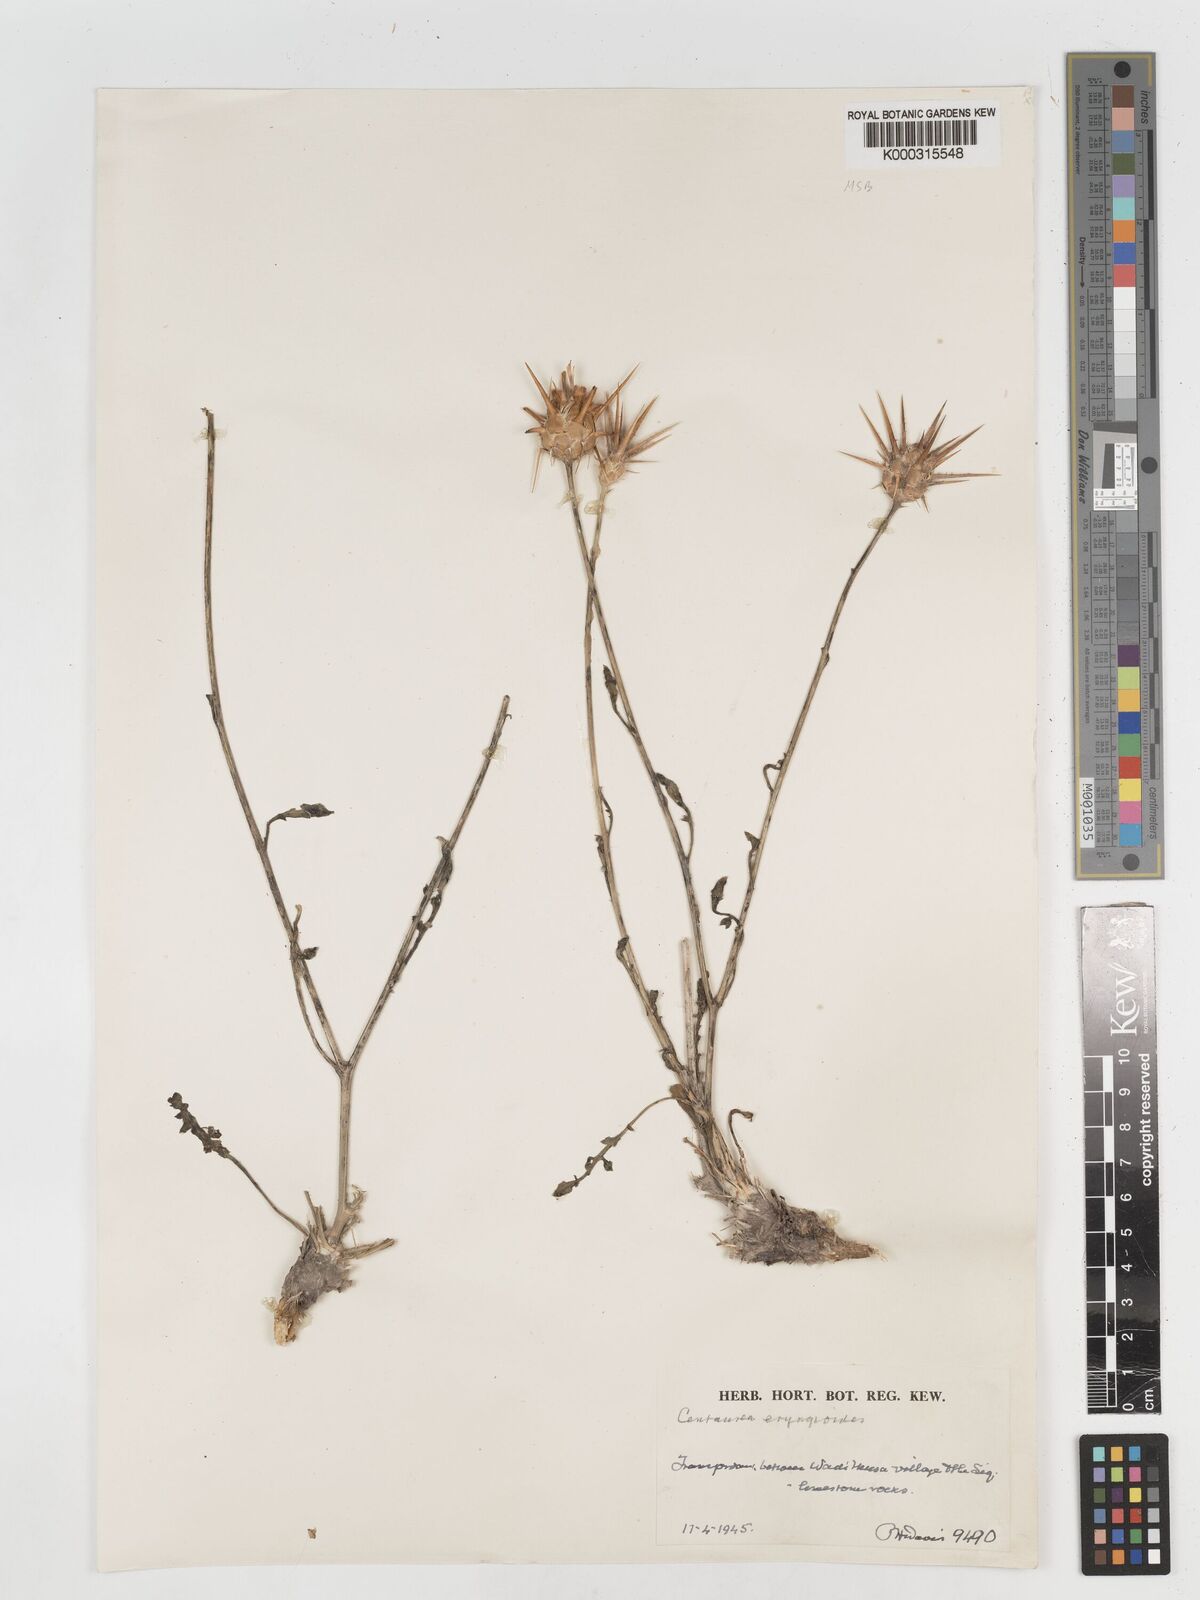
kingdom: Plantae
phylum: Tracheophyta
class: Magnoliopsida
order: Asterales
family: Asteraceae
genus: Centaurea
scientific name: Centaurea eryngioides
